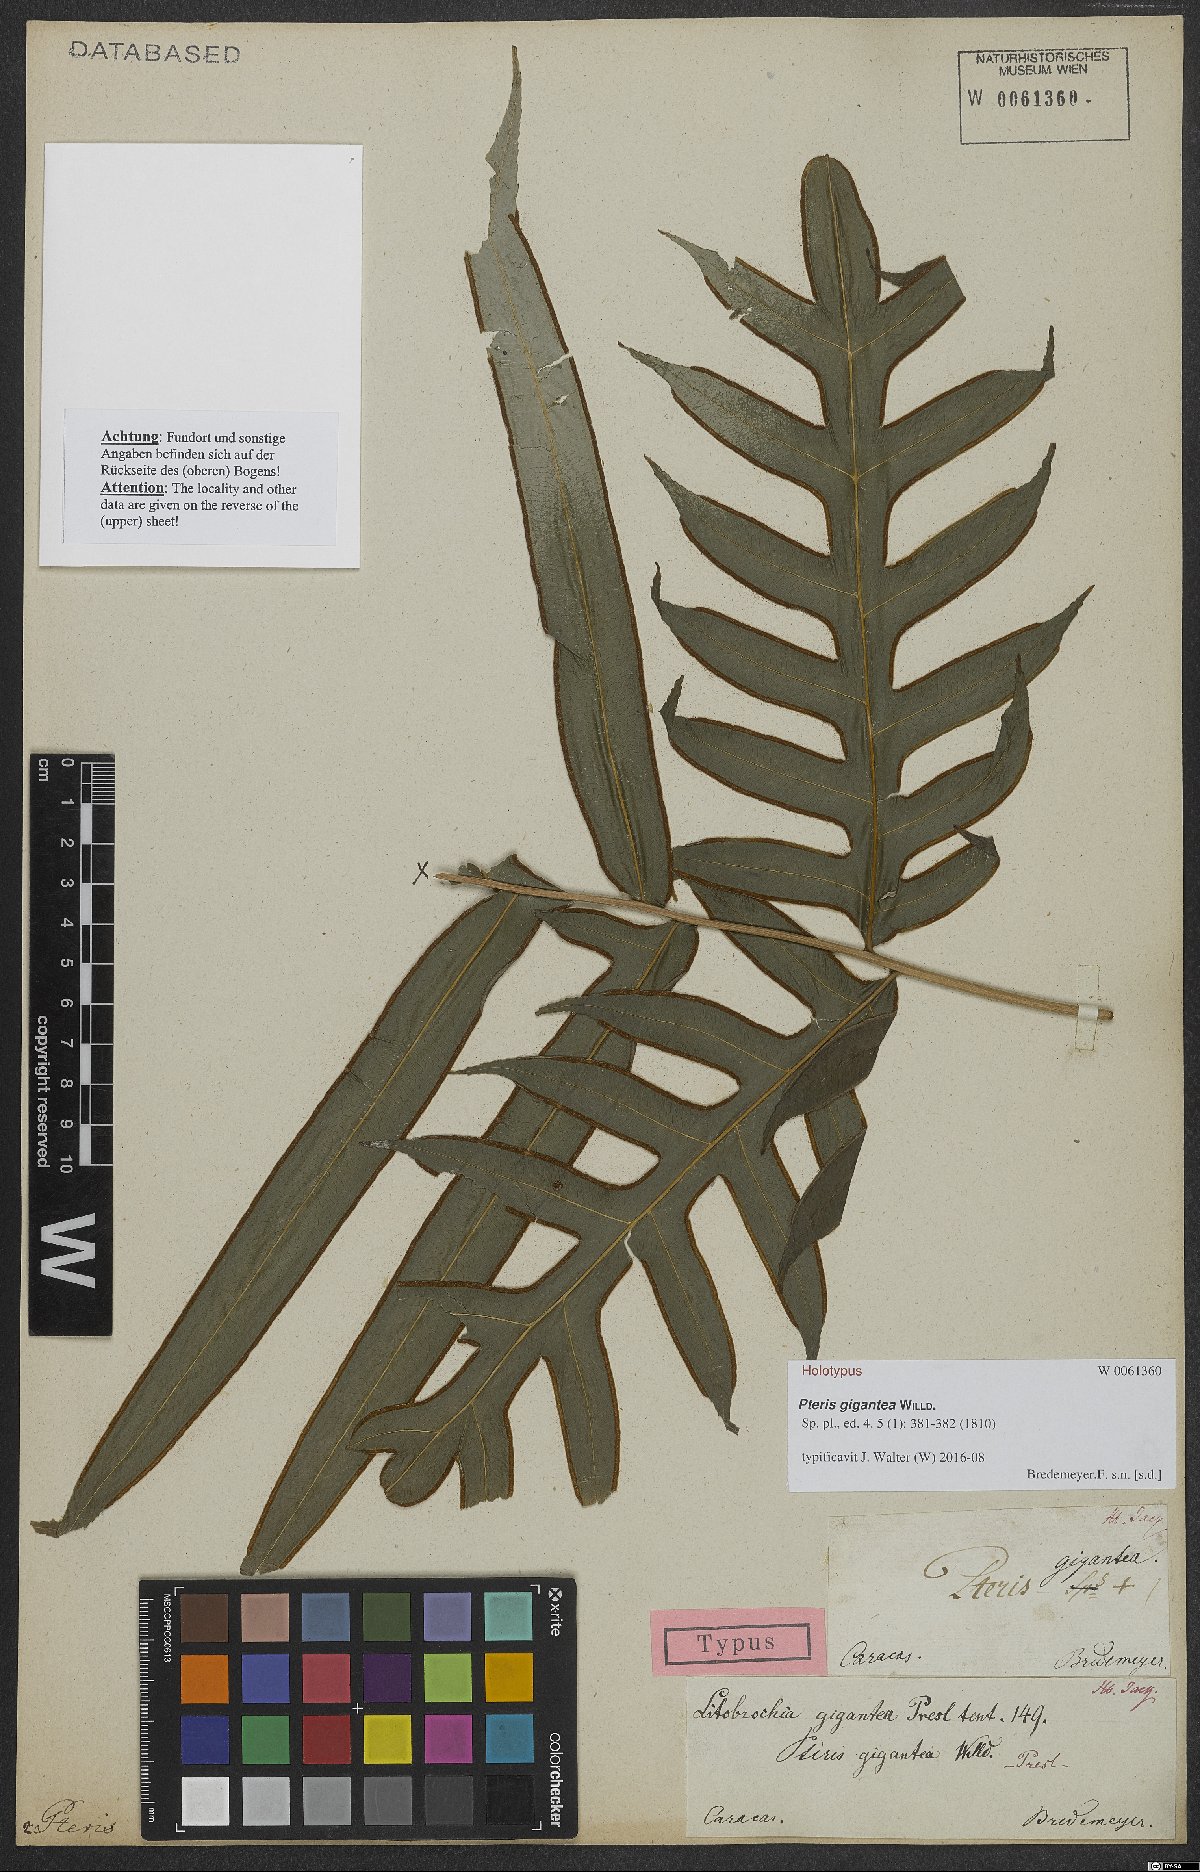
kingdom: Plantae
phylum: Tracheophyta
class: Polypodiopsida
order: Polypodiales
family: Pteridaceae
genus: Pteris
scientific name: Pteris gigantea
